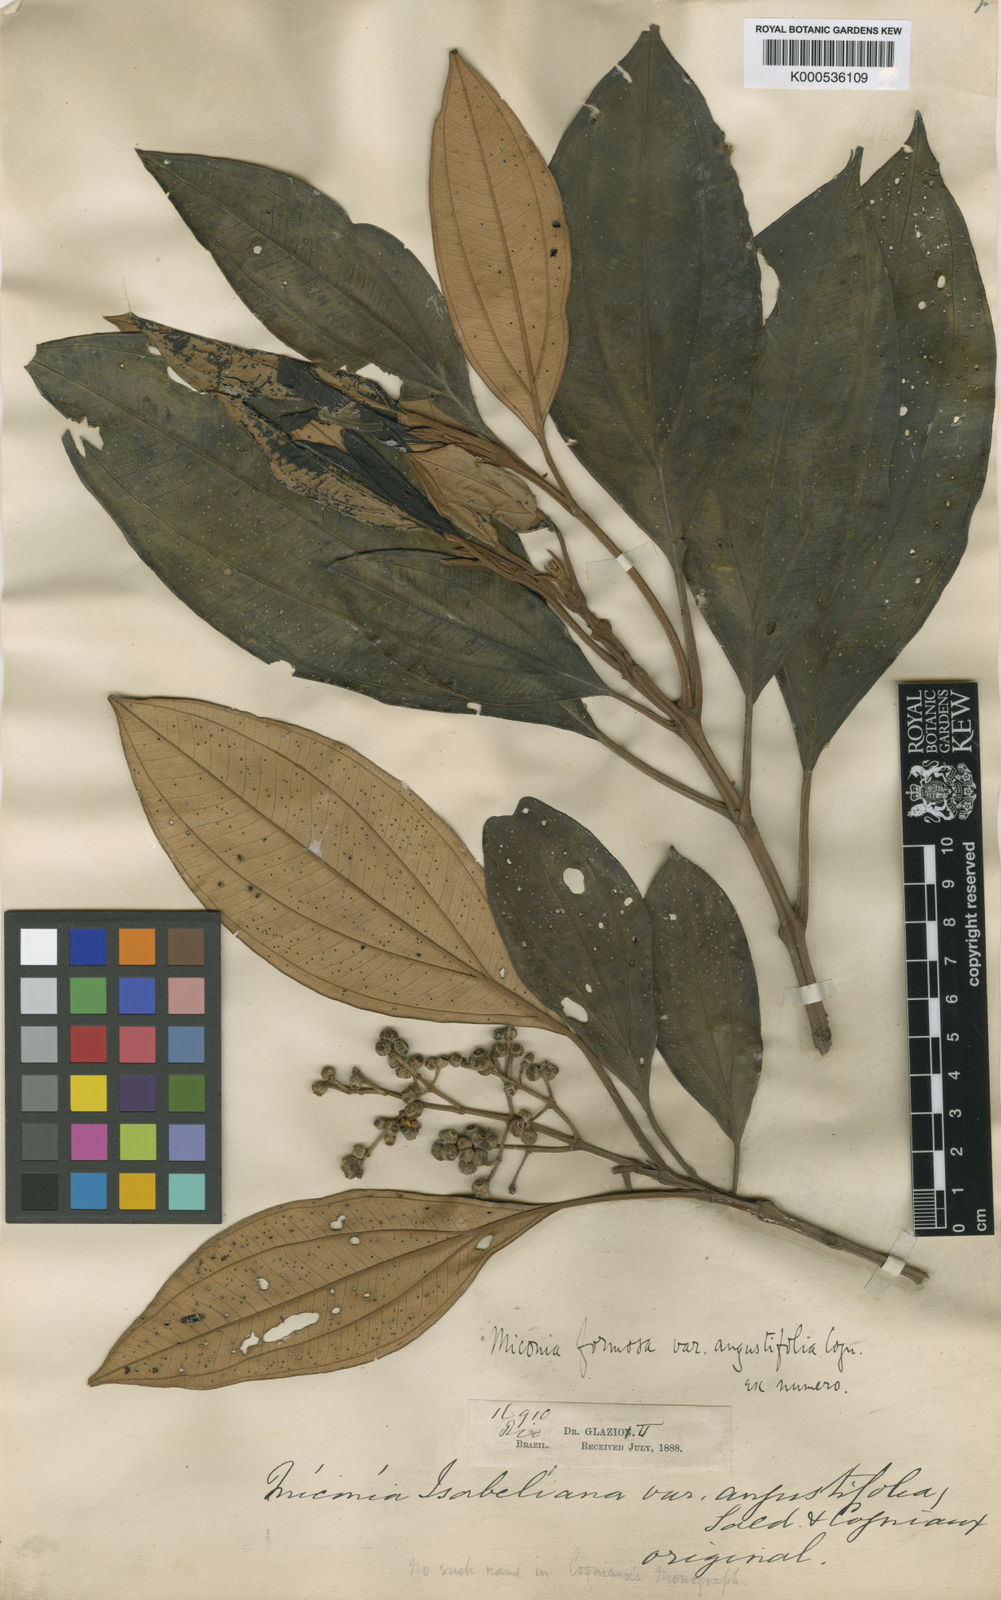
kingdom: Plantae
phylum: Tracheophyta
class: Magnoliopsida
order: Myrtales
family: Melastomataceae
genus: Miconia
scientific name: Miconia formosa
